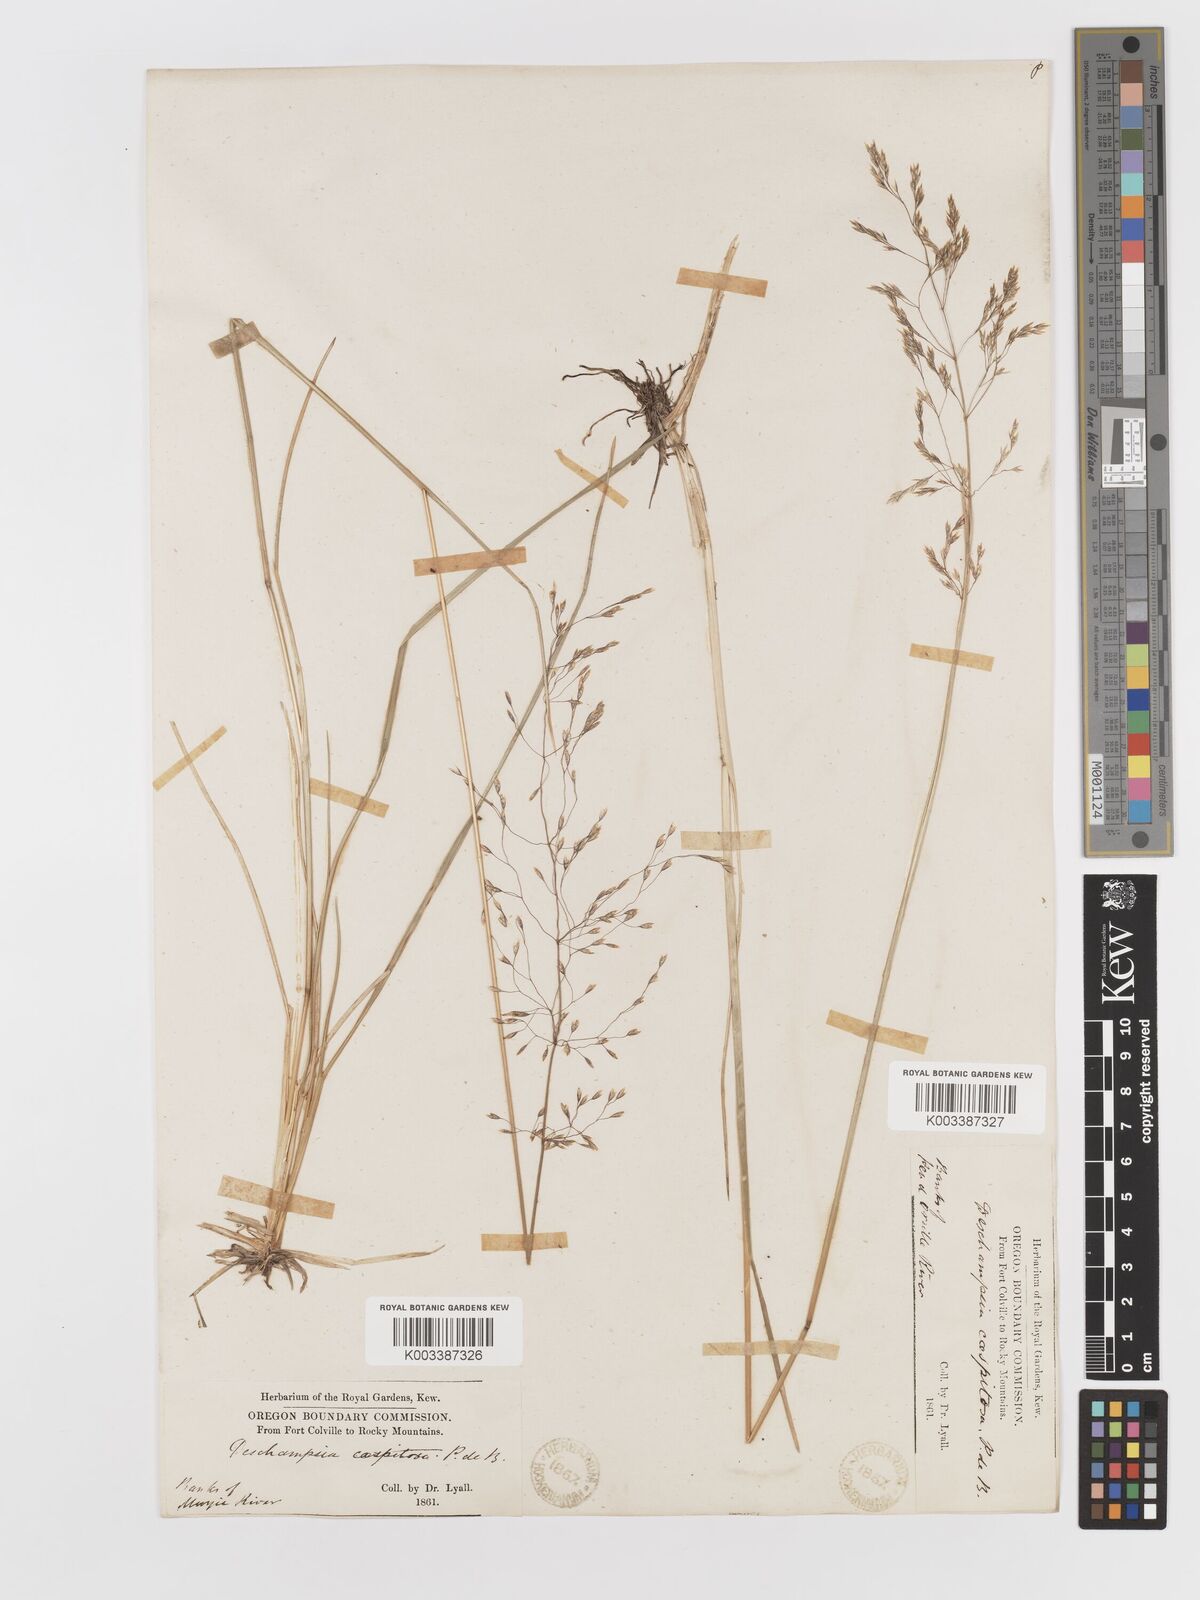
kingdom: Plantae
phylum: Tracheophyta
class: Liliopsida
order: Poales
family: Poaceae
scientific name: Poaceae
